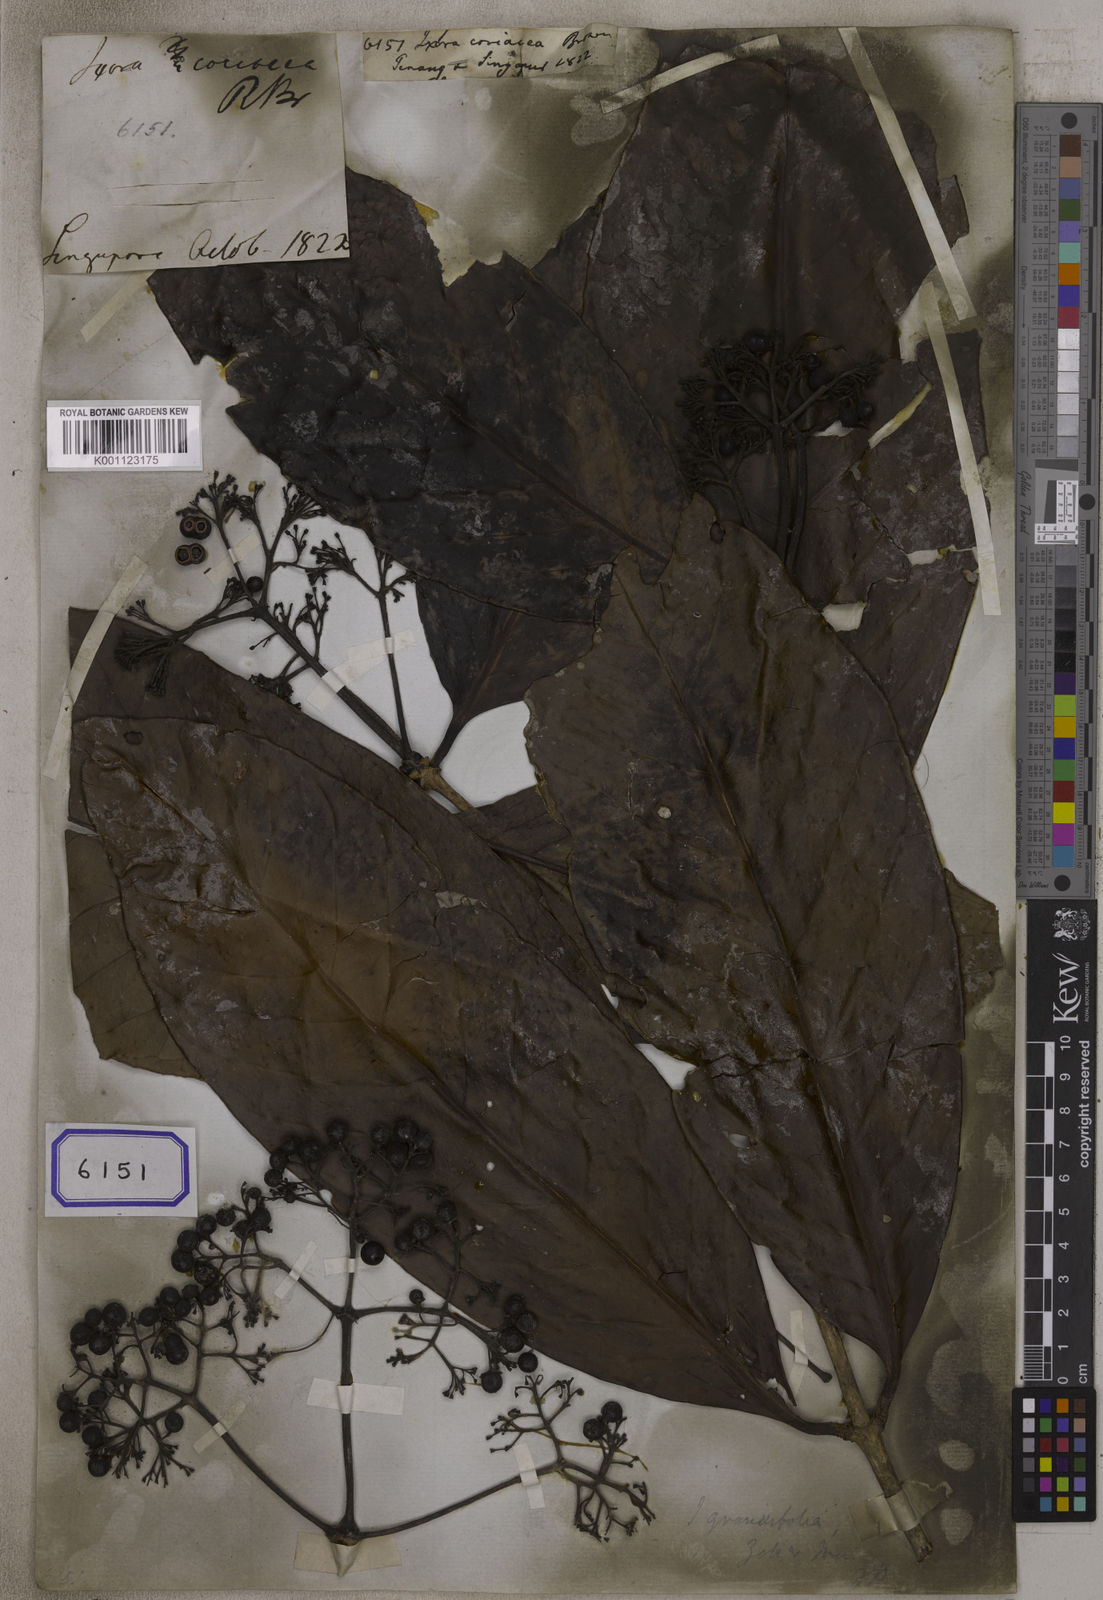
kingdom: Plantae
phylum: Tracheophyta
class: Magnoliopsida
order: Gentianales
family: Rubiaceae
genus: Ixora
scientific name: Ixora
